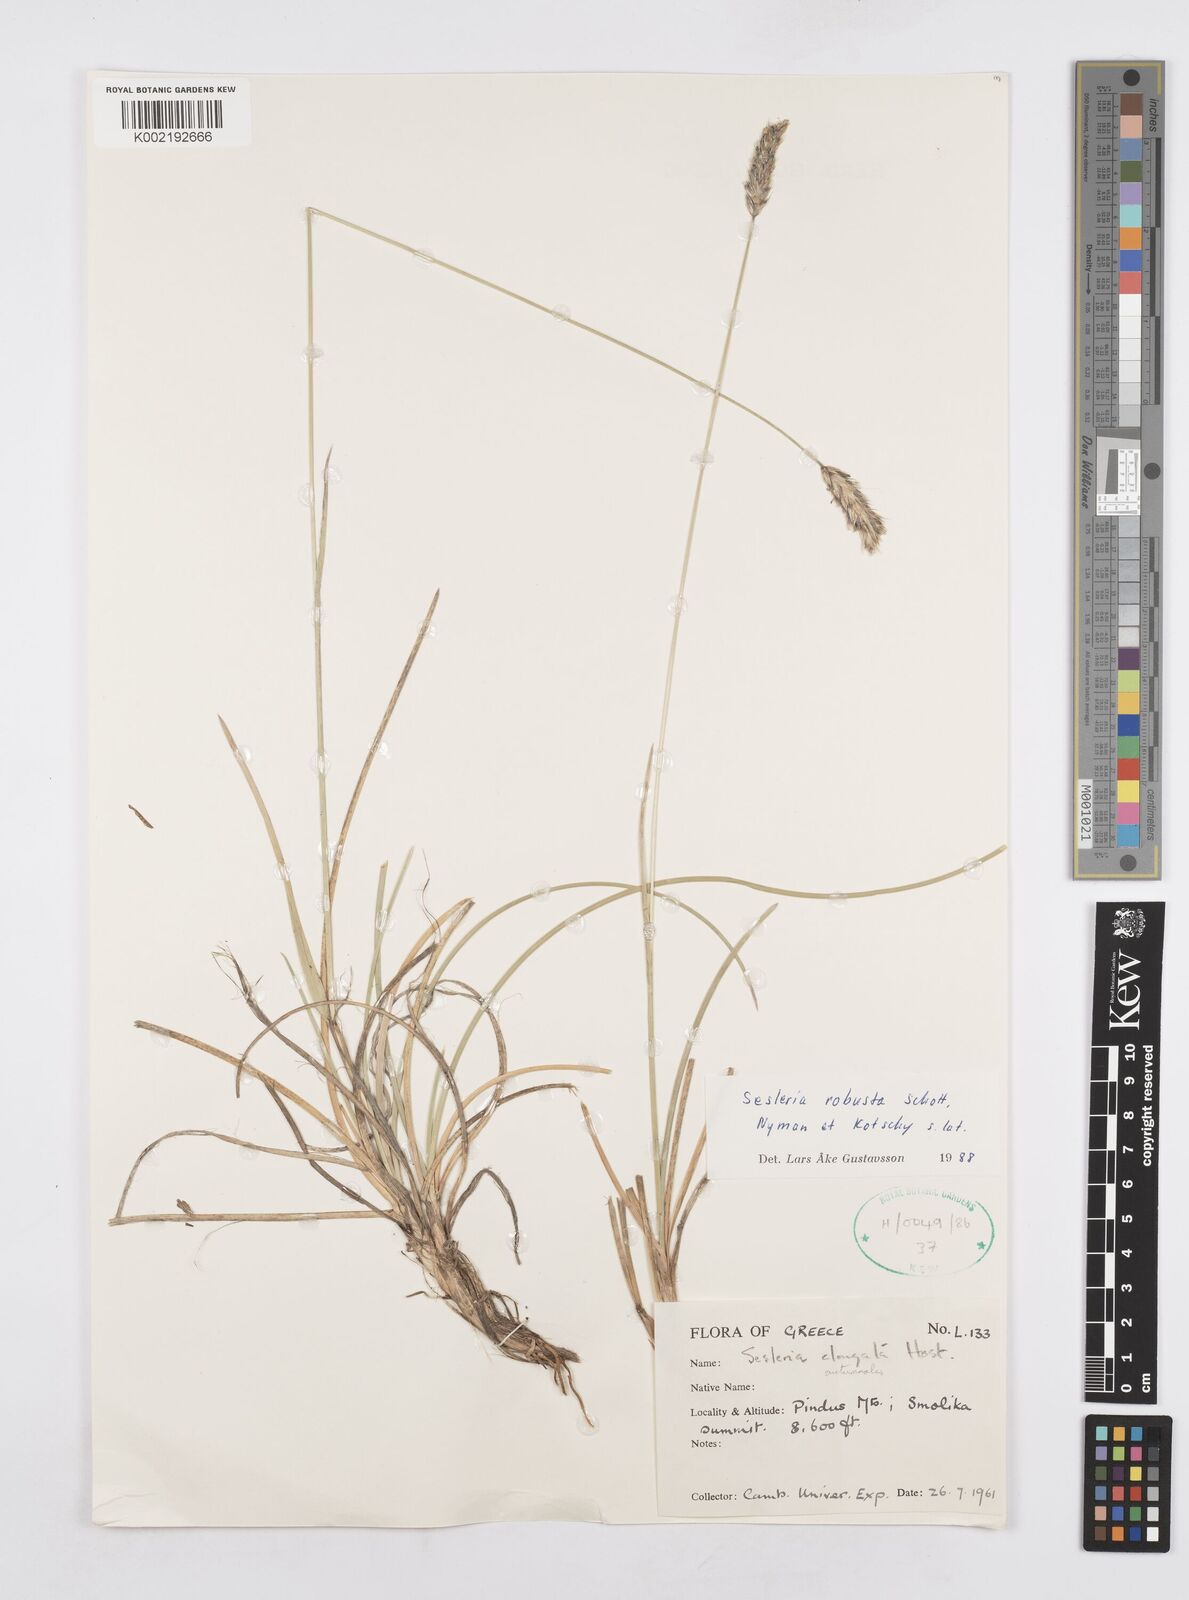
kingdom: Plantae
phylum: Tracheophyta
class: Liliopsida
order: Poales
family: Poaceae
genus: Sesleria
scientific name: Sesleria robusta
